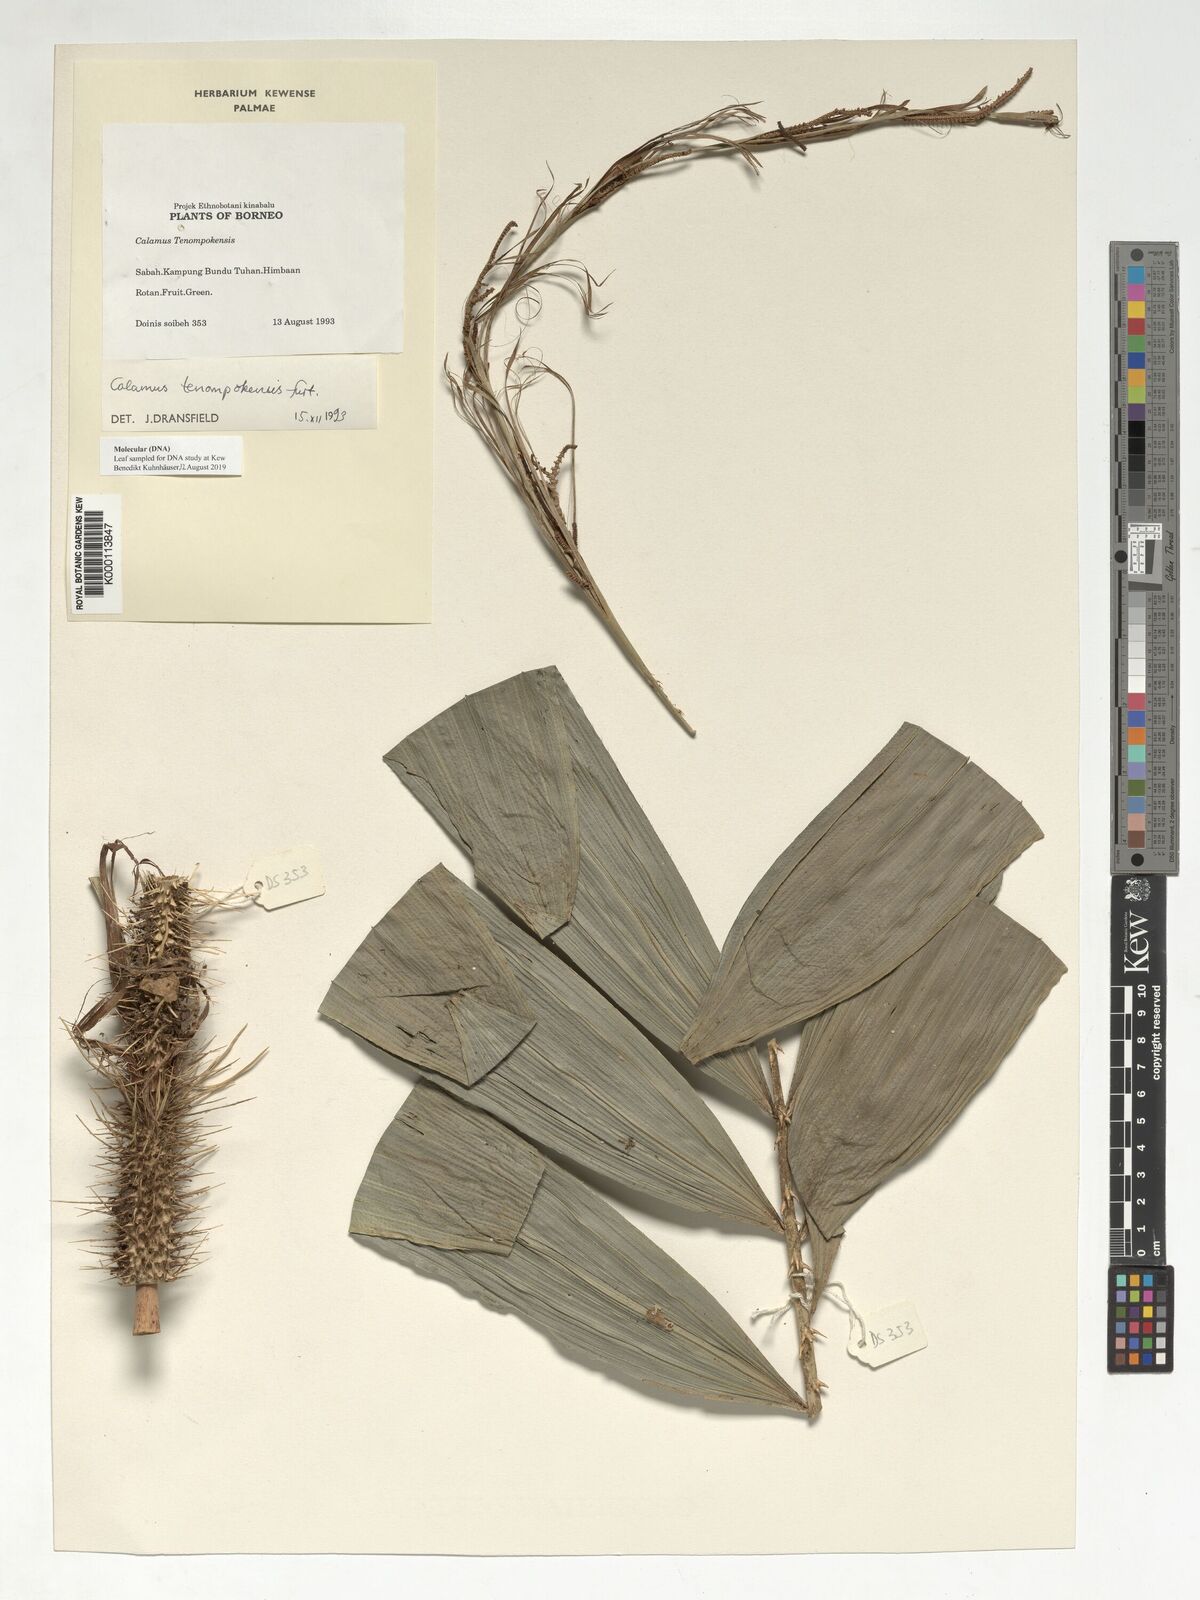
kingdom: Plantae
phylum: Tracheophyta
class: Liliopsida
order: Arecales
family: Arecaceae
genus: Calamus
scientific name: Calamus tenompokensis
